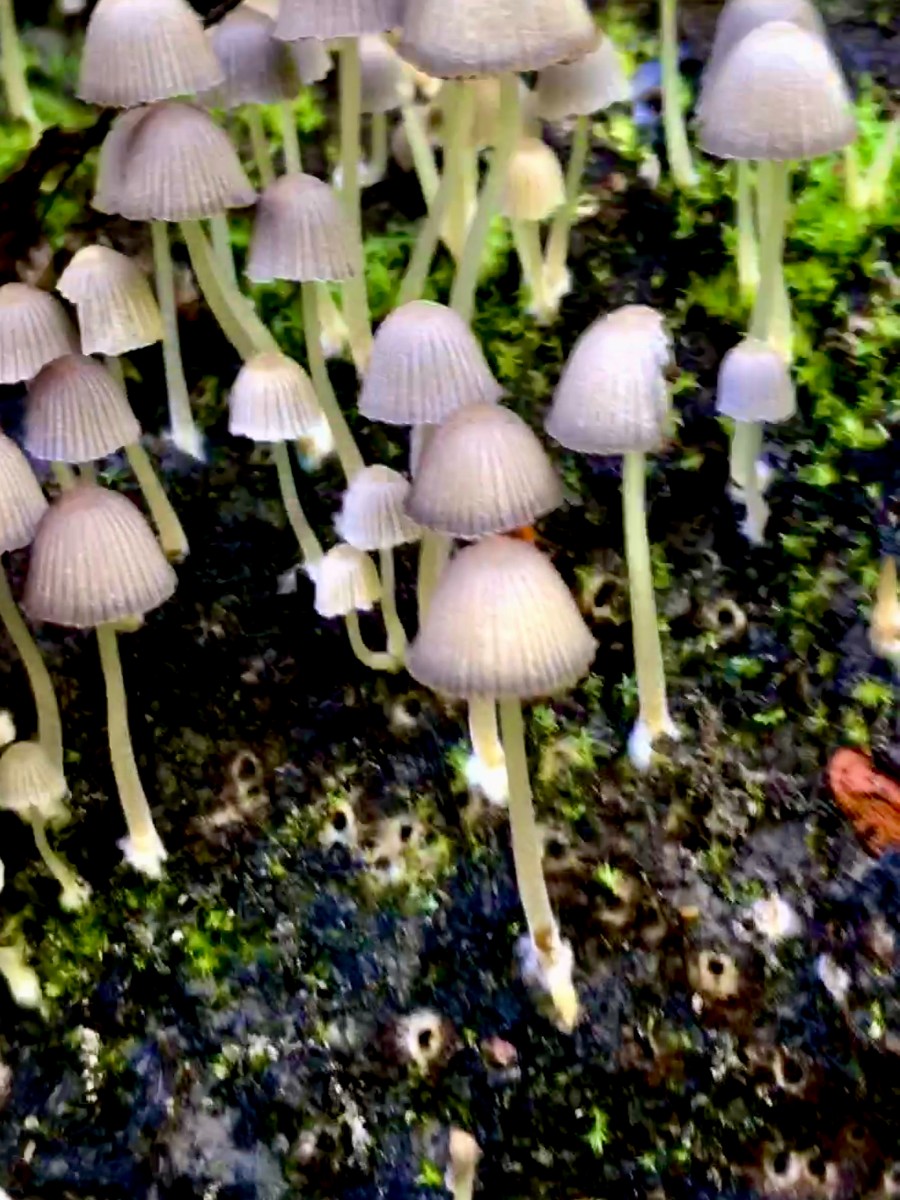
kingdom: Fungi
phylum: Basidiomycota
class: Agaricomycetes
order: Agaricales
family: Psathyrellaceae
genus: Coprinellus
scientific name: Coprinellus disseminatus
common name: bredsået blækhat
